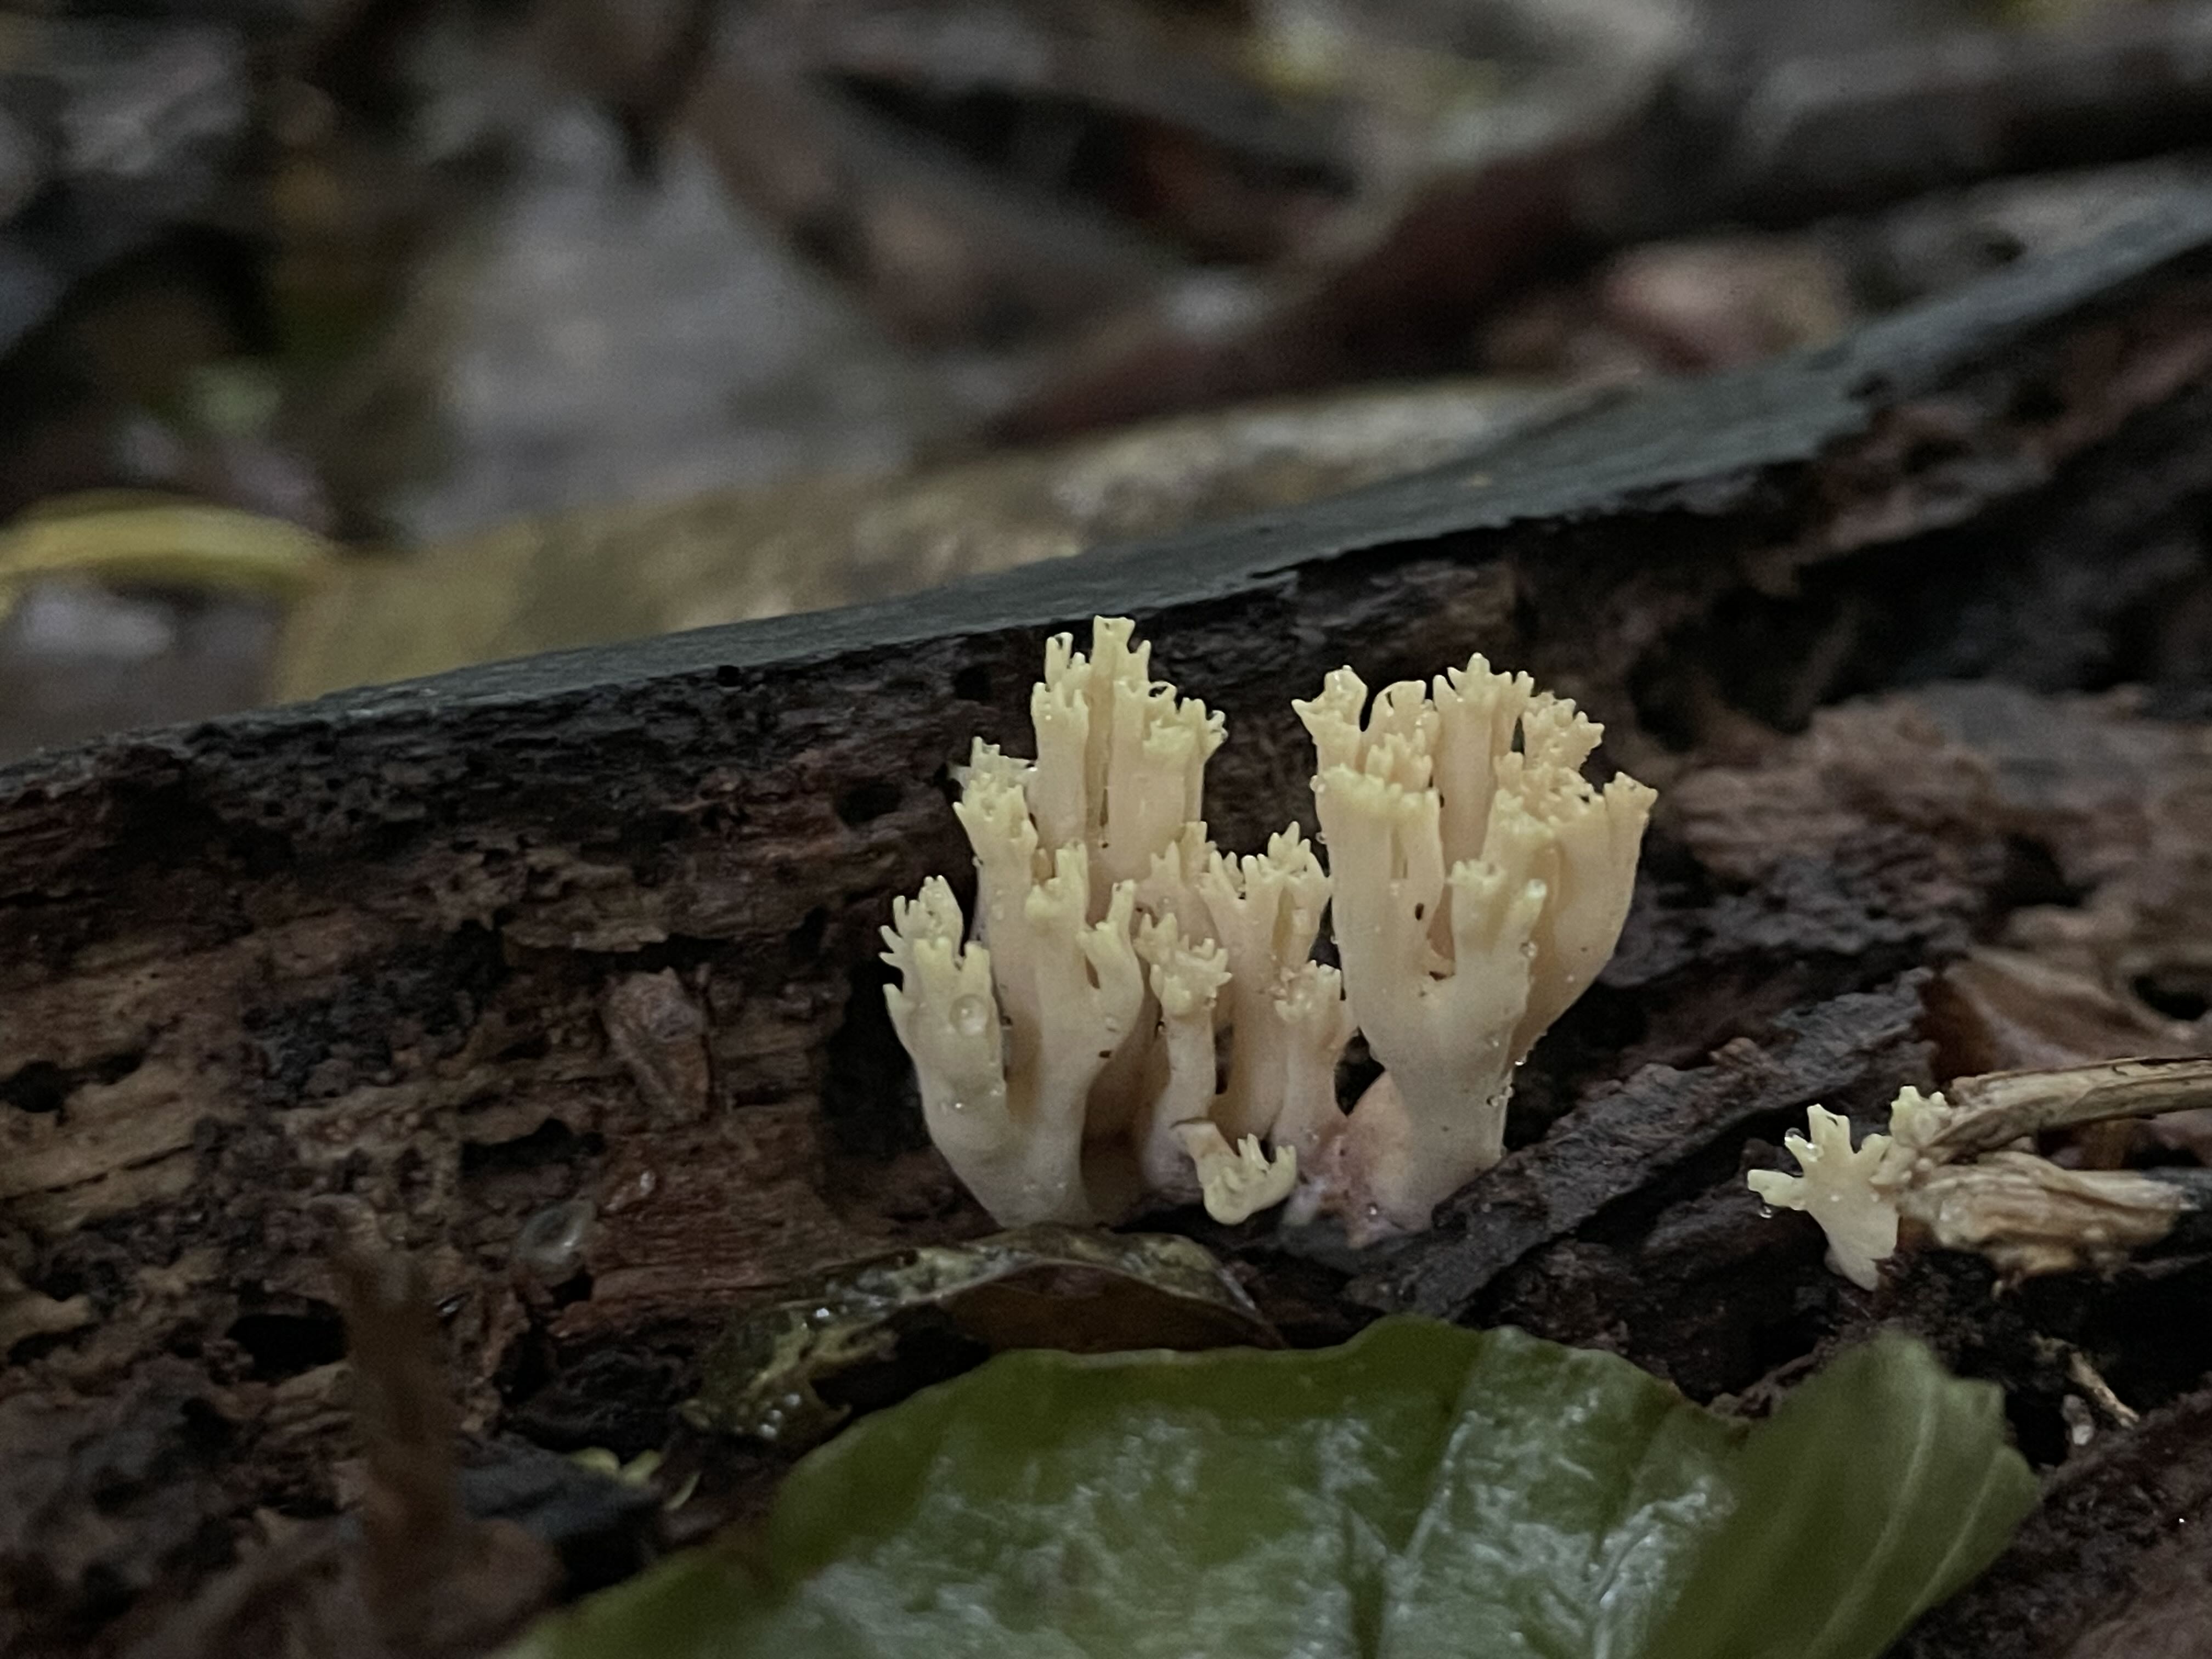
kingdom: Fungi
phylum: Basidiomycota
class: Agaricomycetes
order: Gomphales
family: Gomphaceae
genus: Ramaria
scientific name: Ramaria stricta
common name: rank koralsvamp
